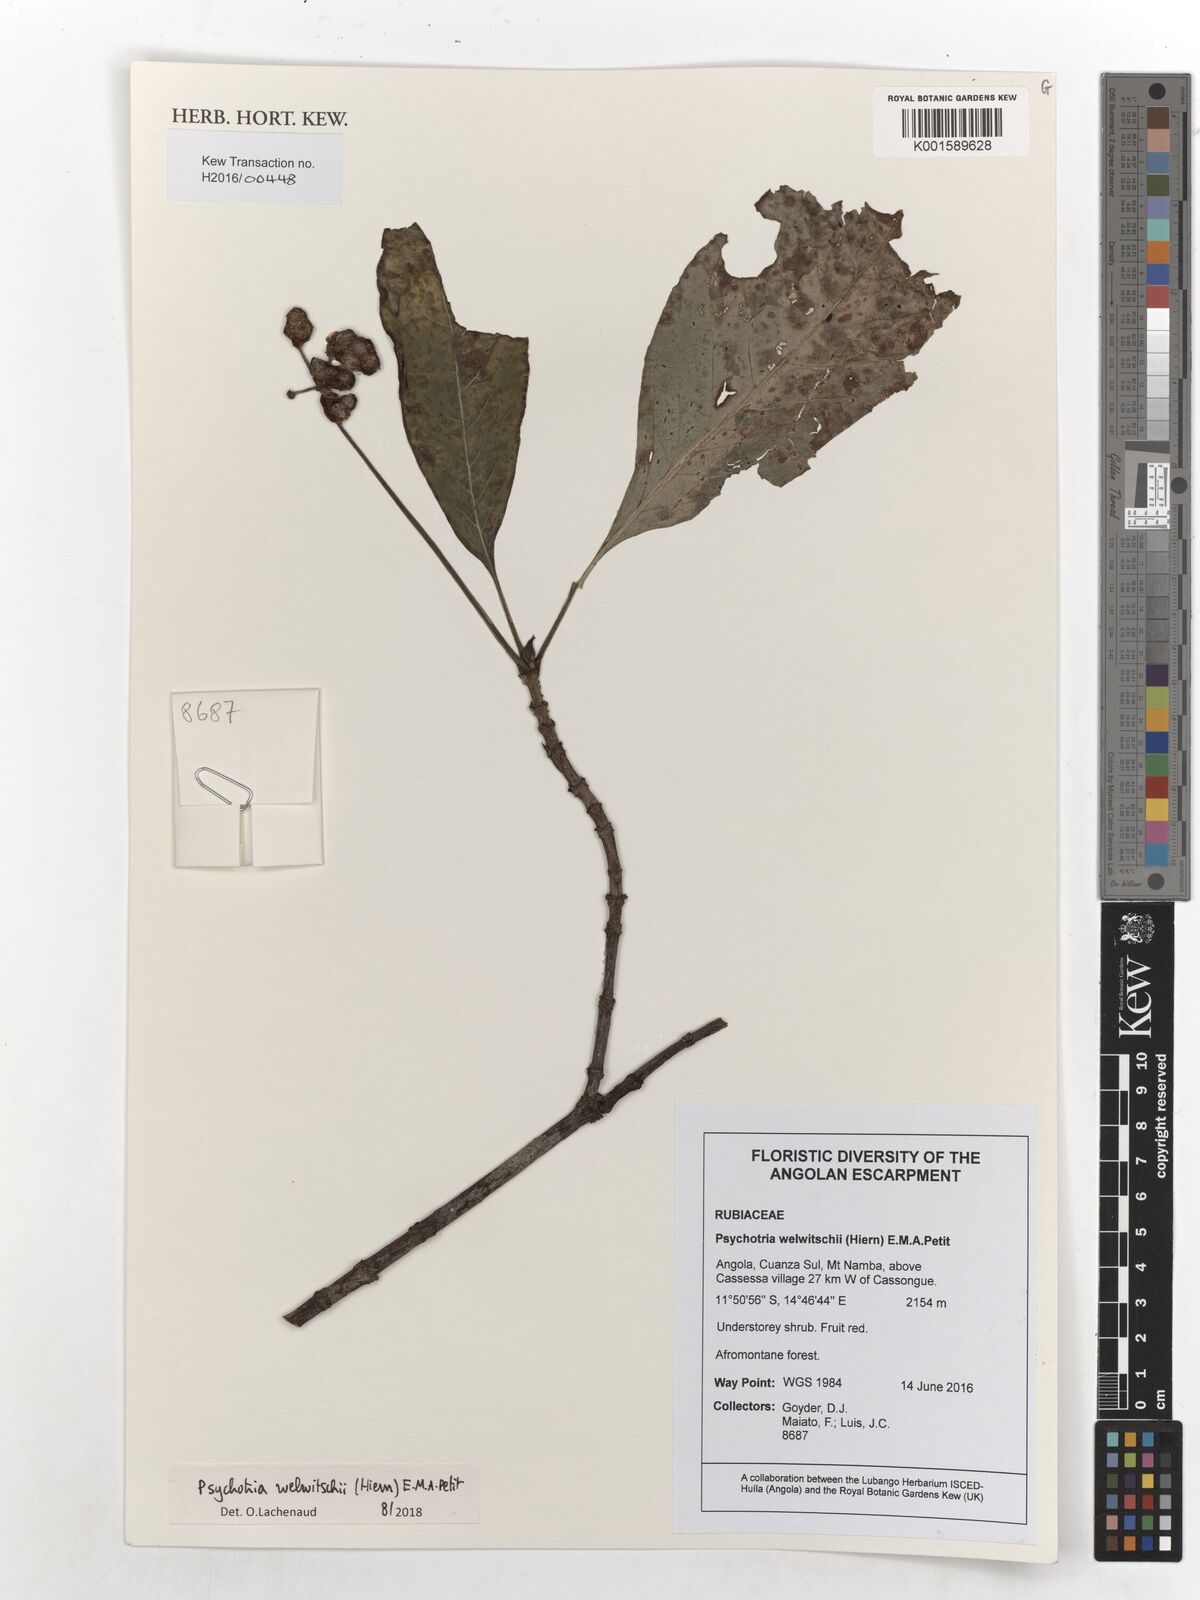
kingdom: Plantae
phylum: Tracheophyta
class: Magnoliopsida
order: Gentianales
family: Rubiaceae
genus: Psychotria
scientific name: Psychotria welwitschii
